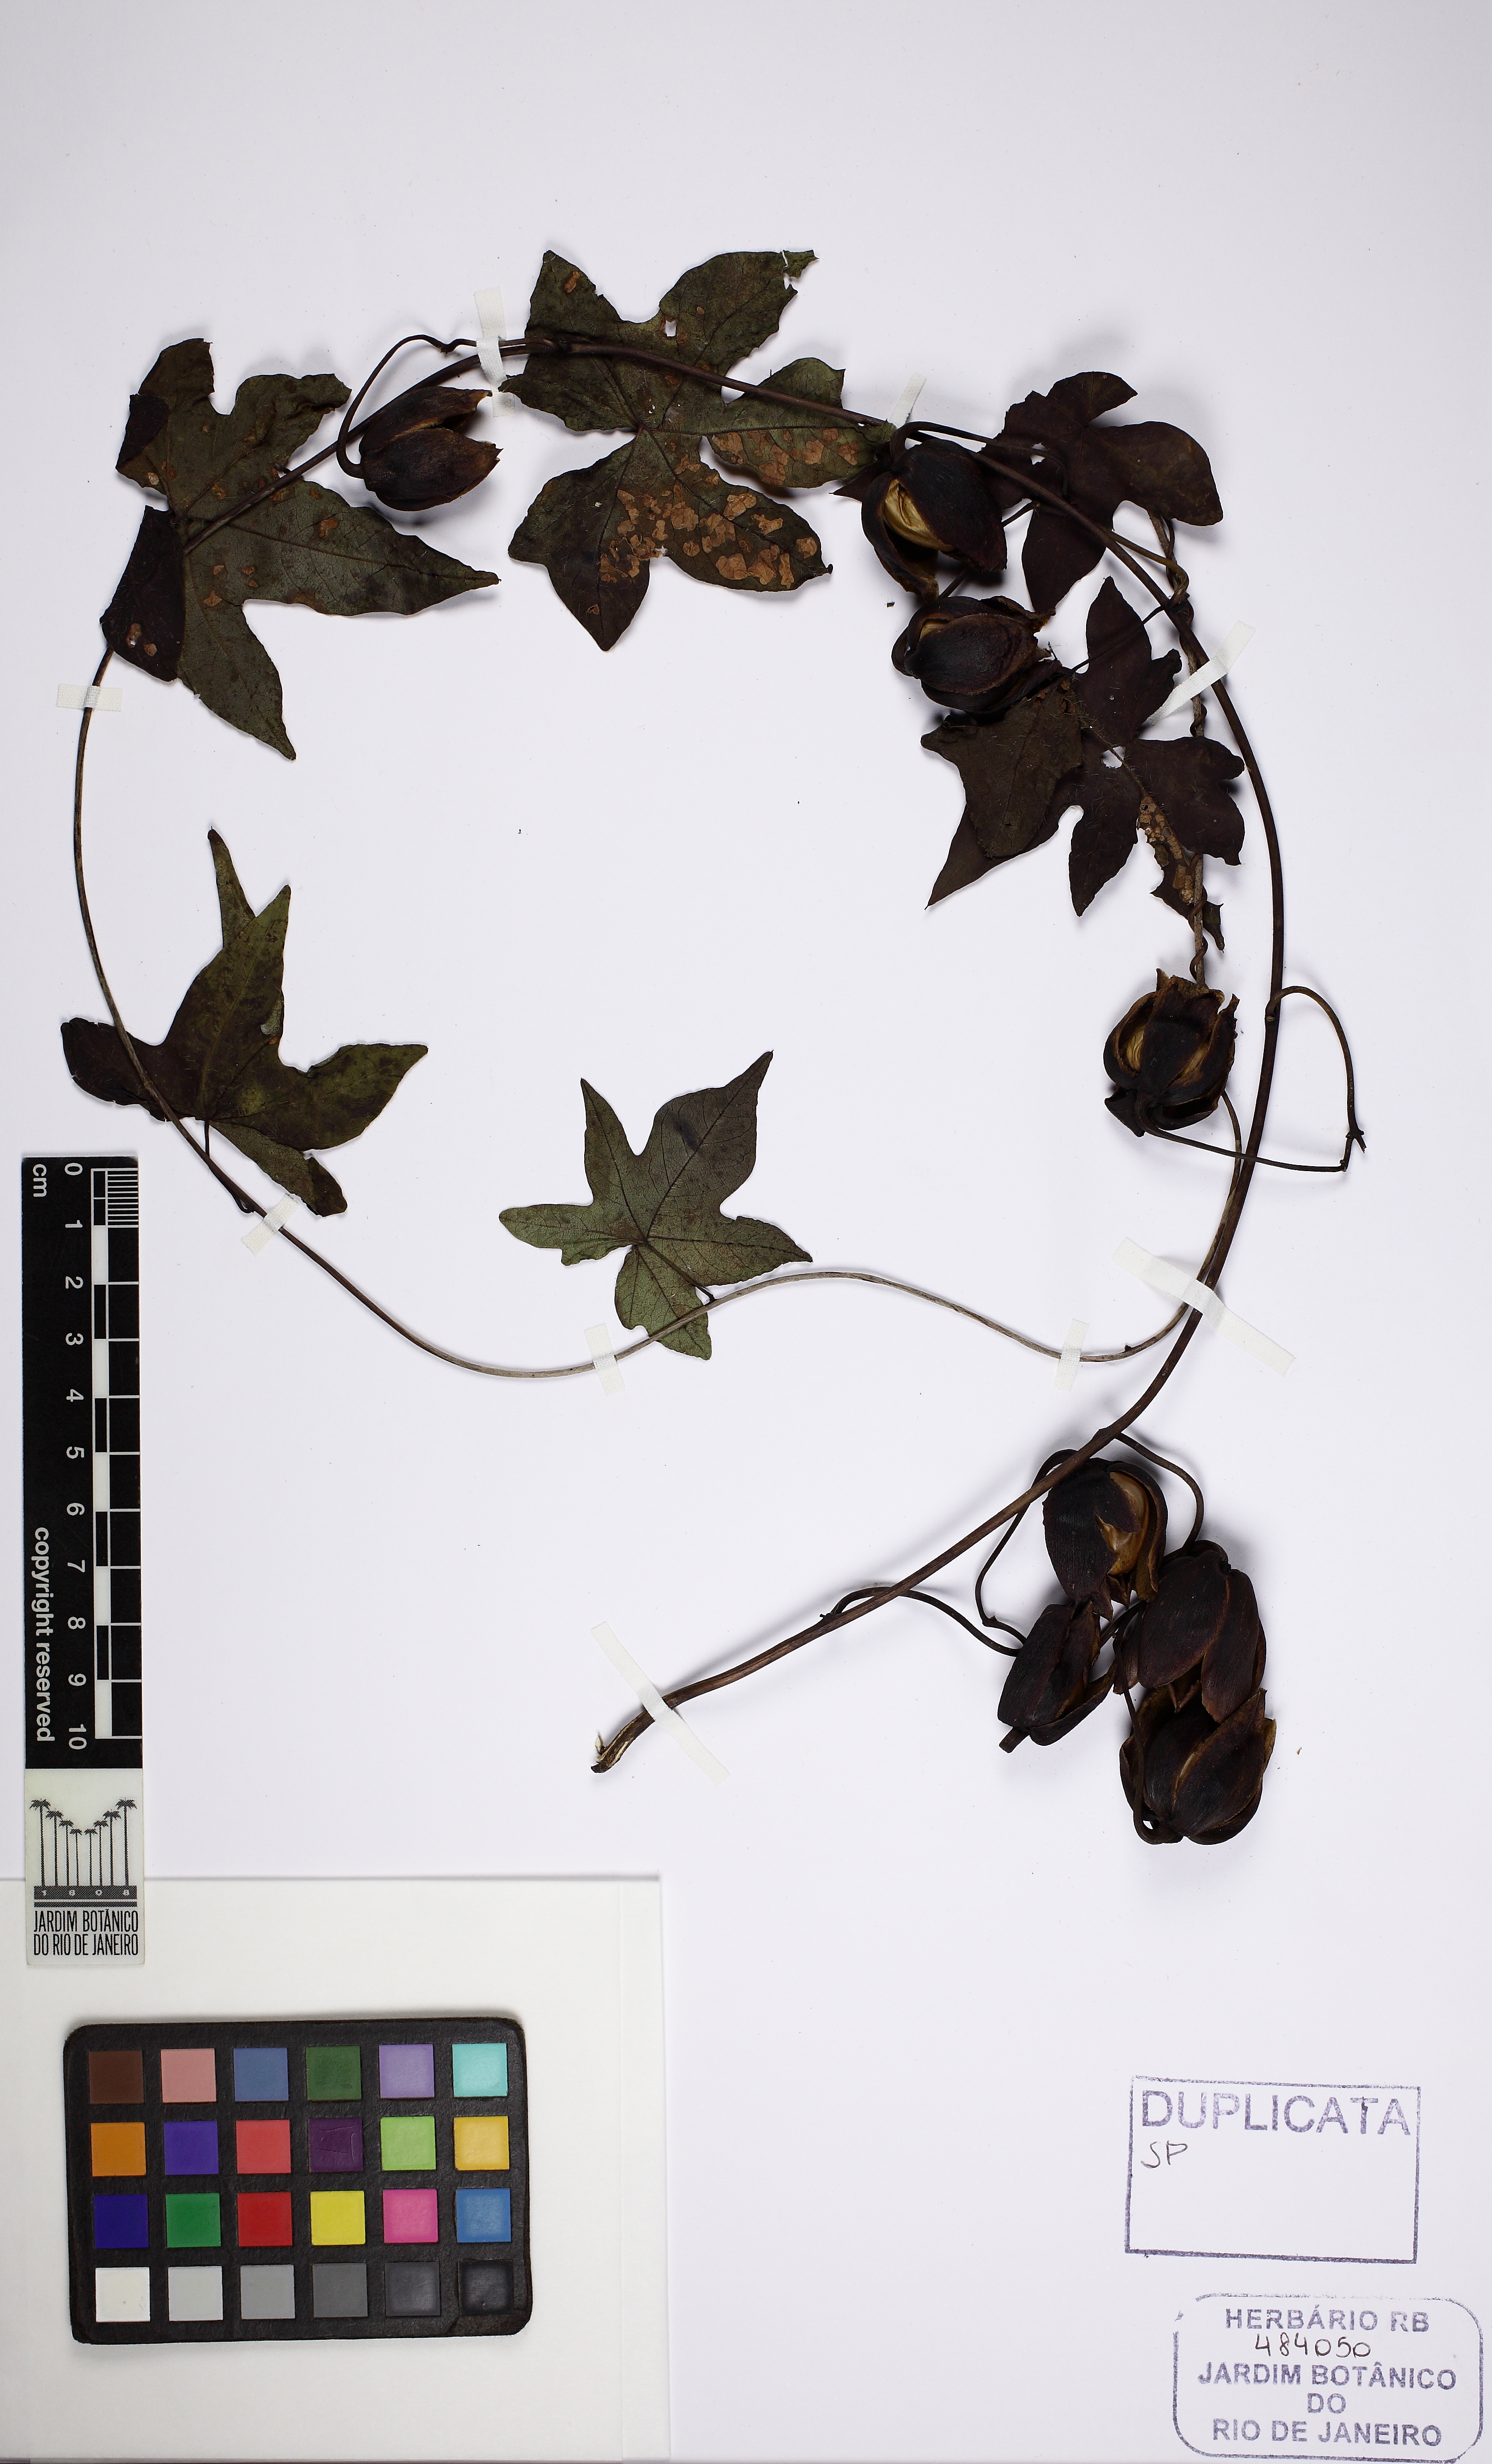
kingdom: Plantae
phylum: Tracheophyta
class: Magnoliopsida
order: Solanales
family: Convolvulaceae
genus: Distimake
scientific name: Distimake dissectus
